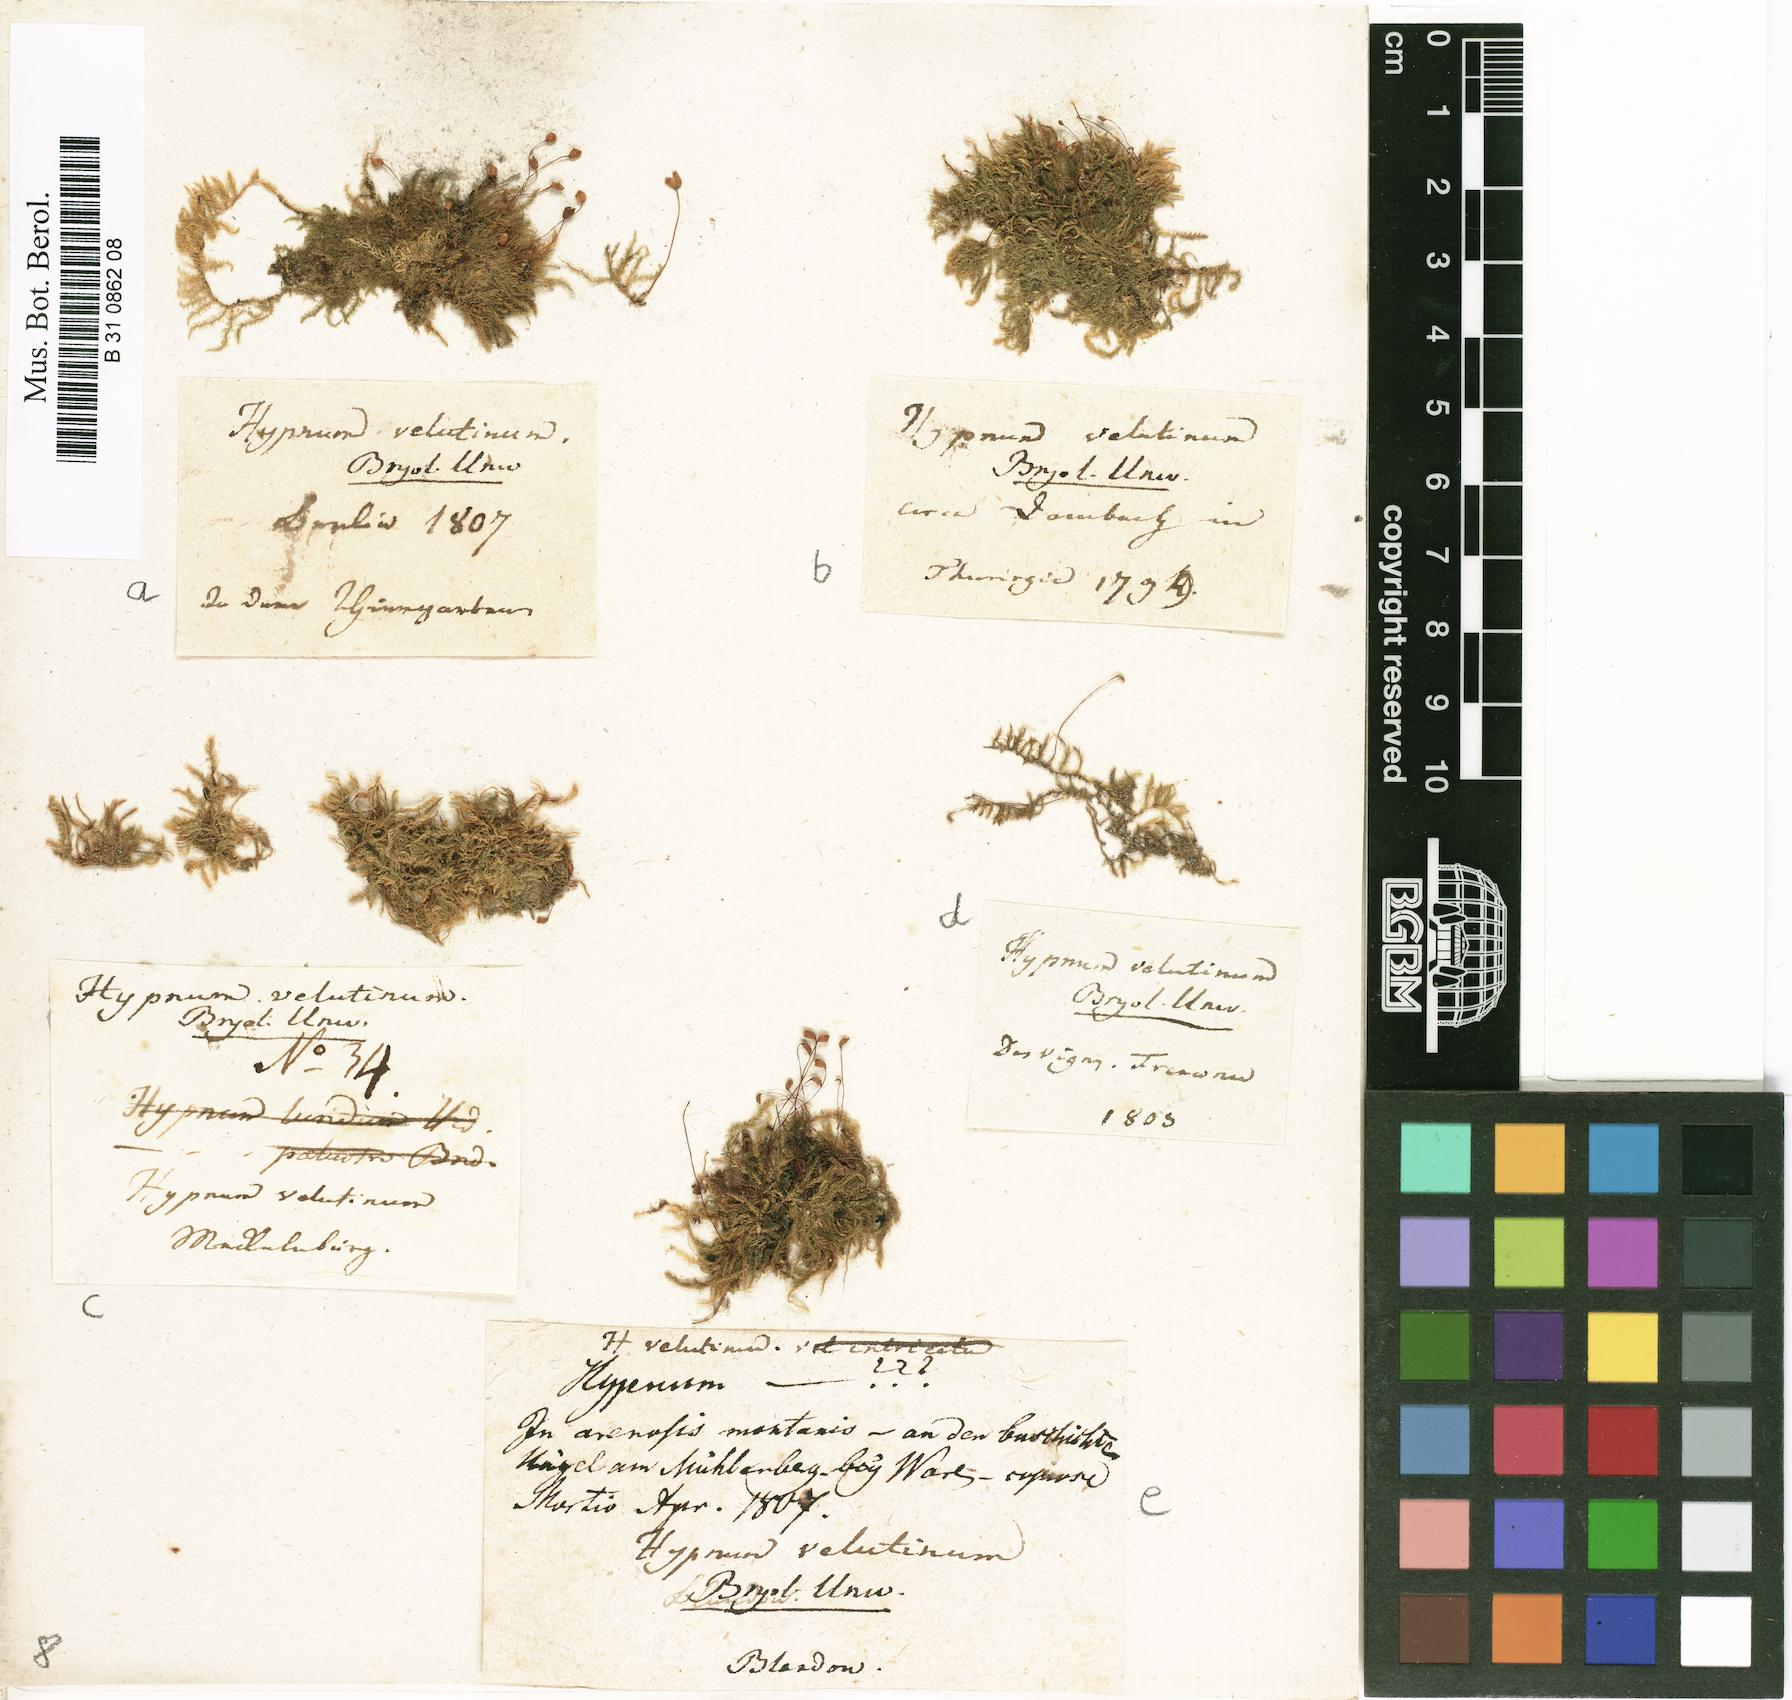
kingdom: Plantae
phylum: Bryophyta
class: Bryopsida
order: Hypnales
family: Brachytheciaceae
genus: Brachytheciastrum
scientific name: Brachytheciastrum velutinum
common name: Velvet feather-moss
